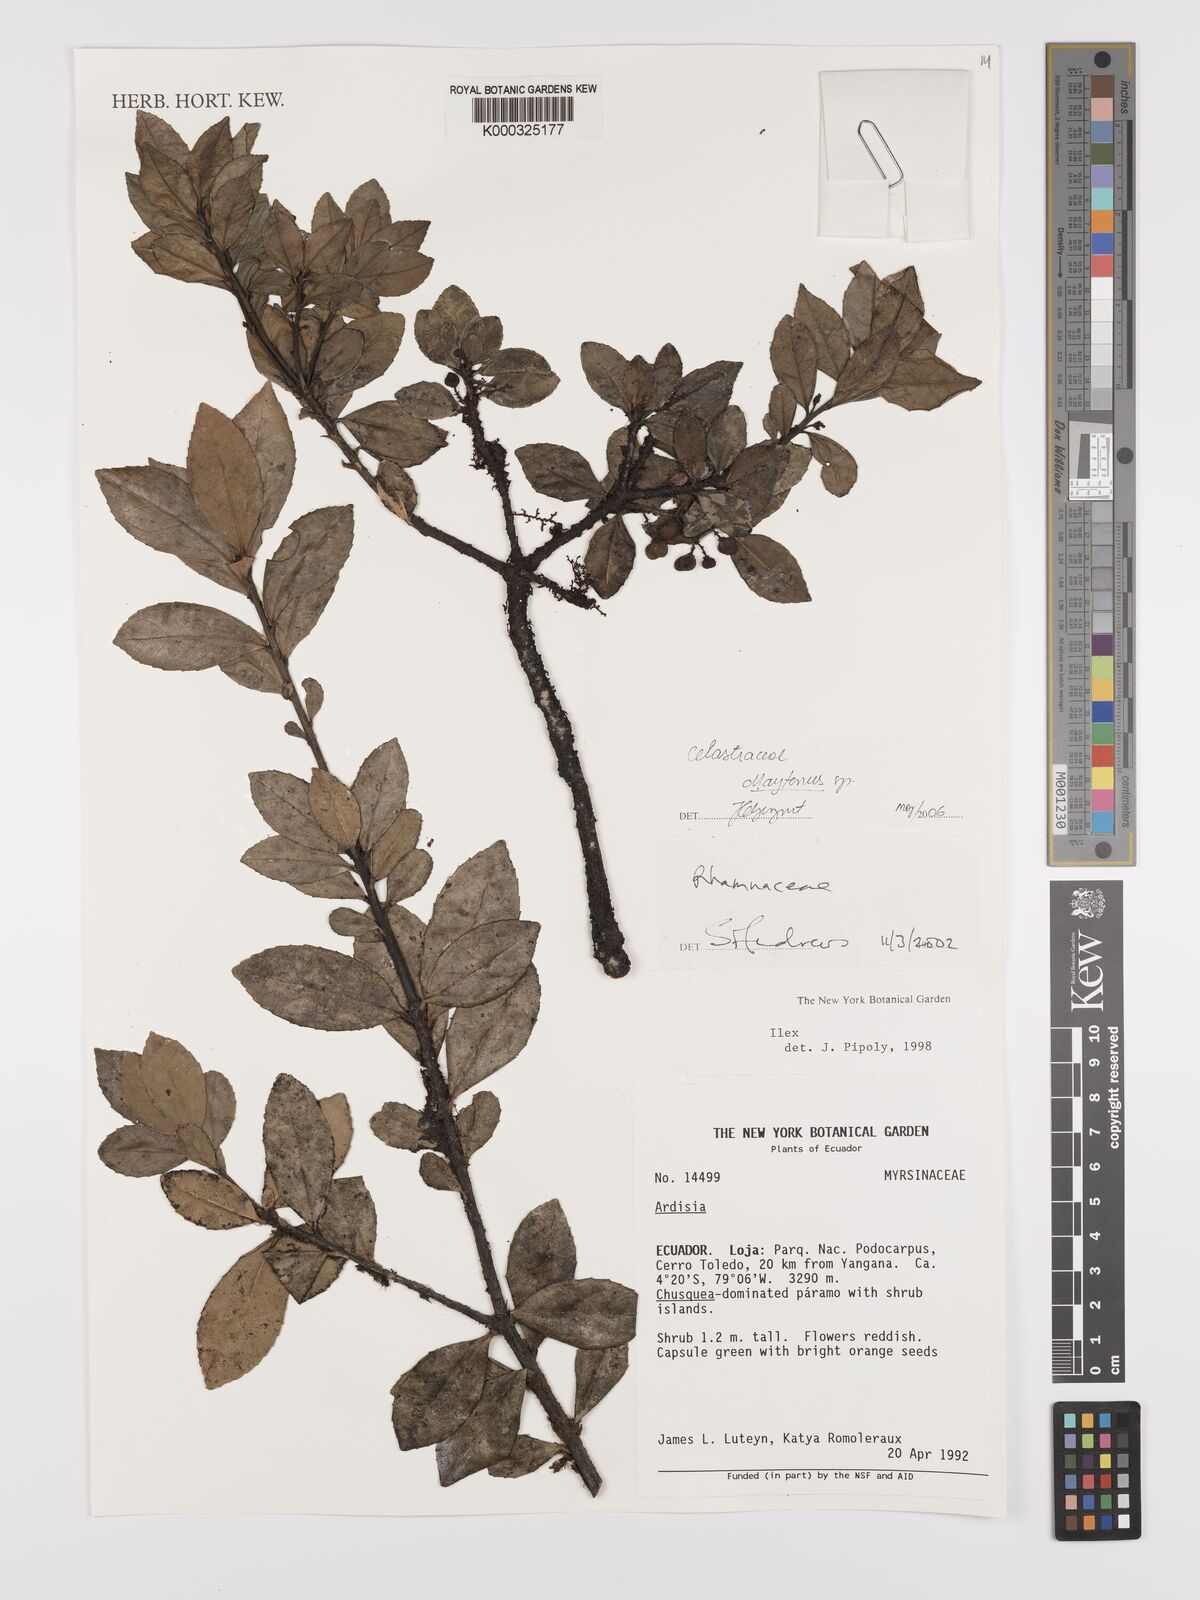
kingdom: Plantae
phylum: Tracheophyta
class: Magnoliopsida
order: Celastrales
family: Celastraceae
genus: Maytenus
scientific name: Maytenus
